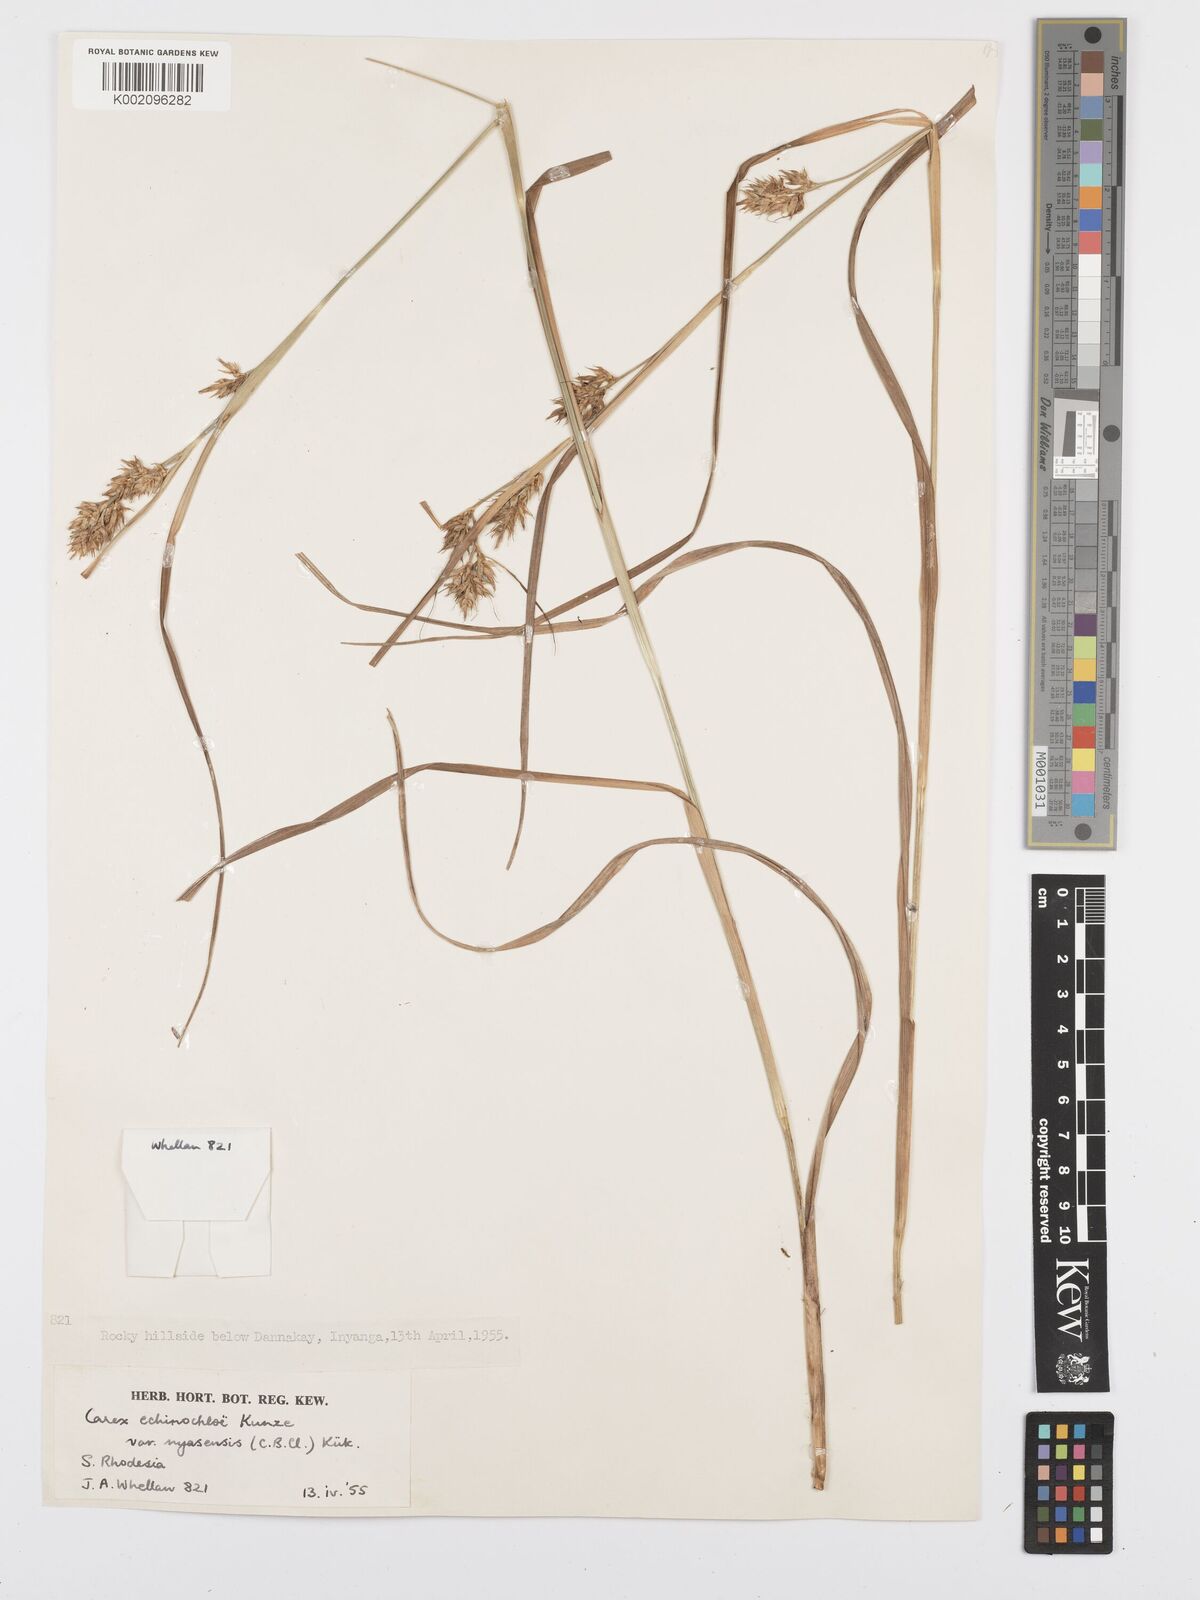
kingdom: Plantae
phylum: Tracheophyta
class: Liliopsida
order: Poales
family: Cyperaceae
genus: Carex
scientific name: Carex spicatopaniculata
